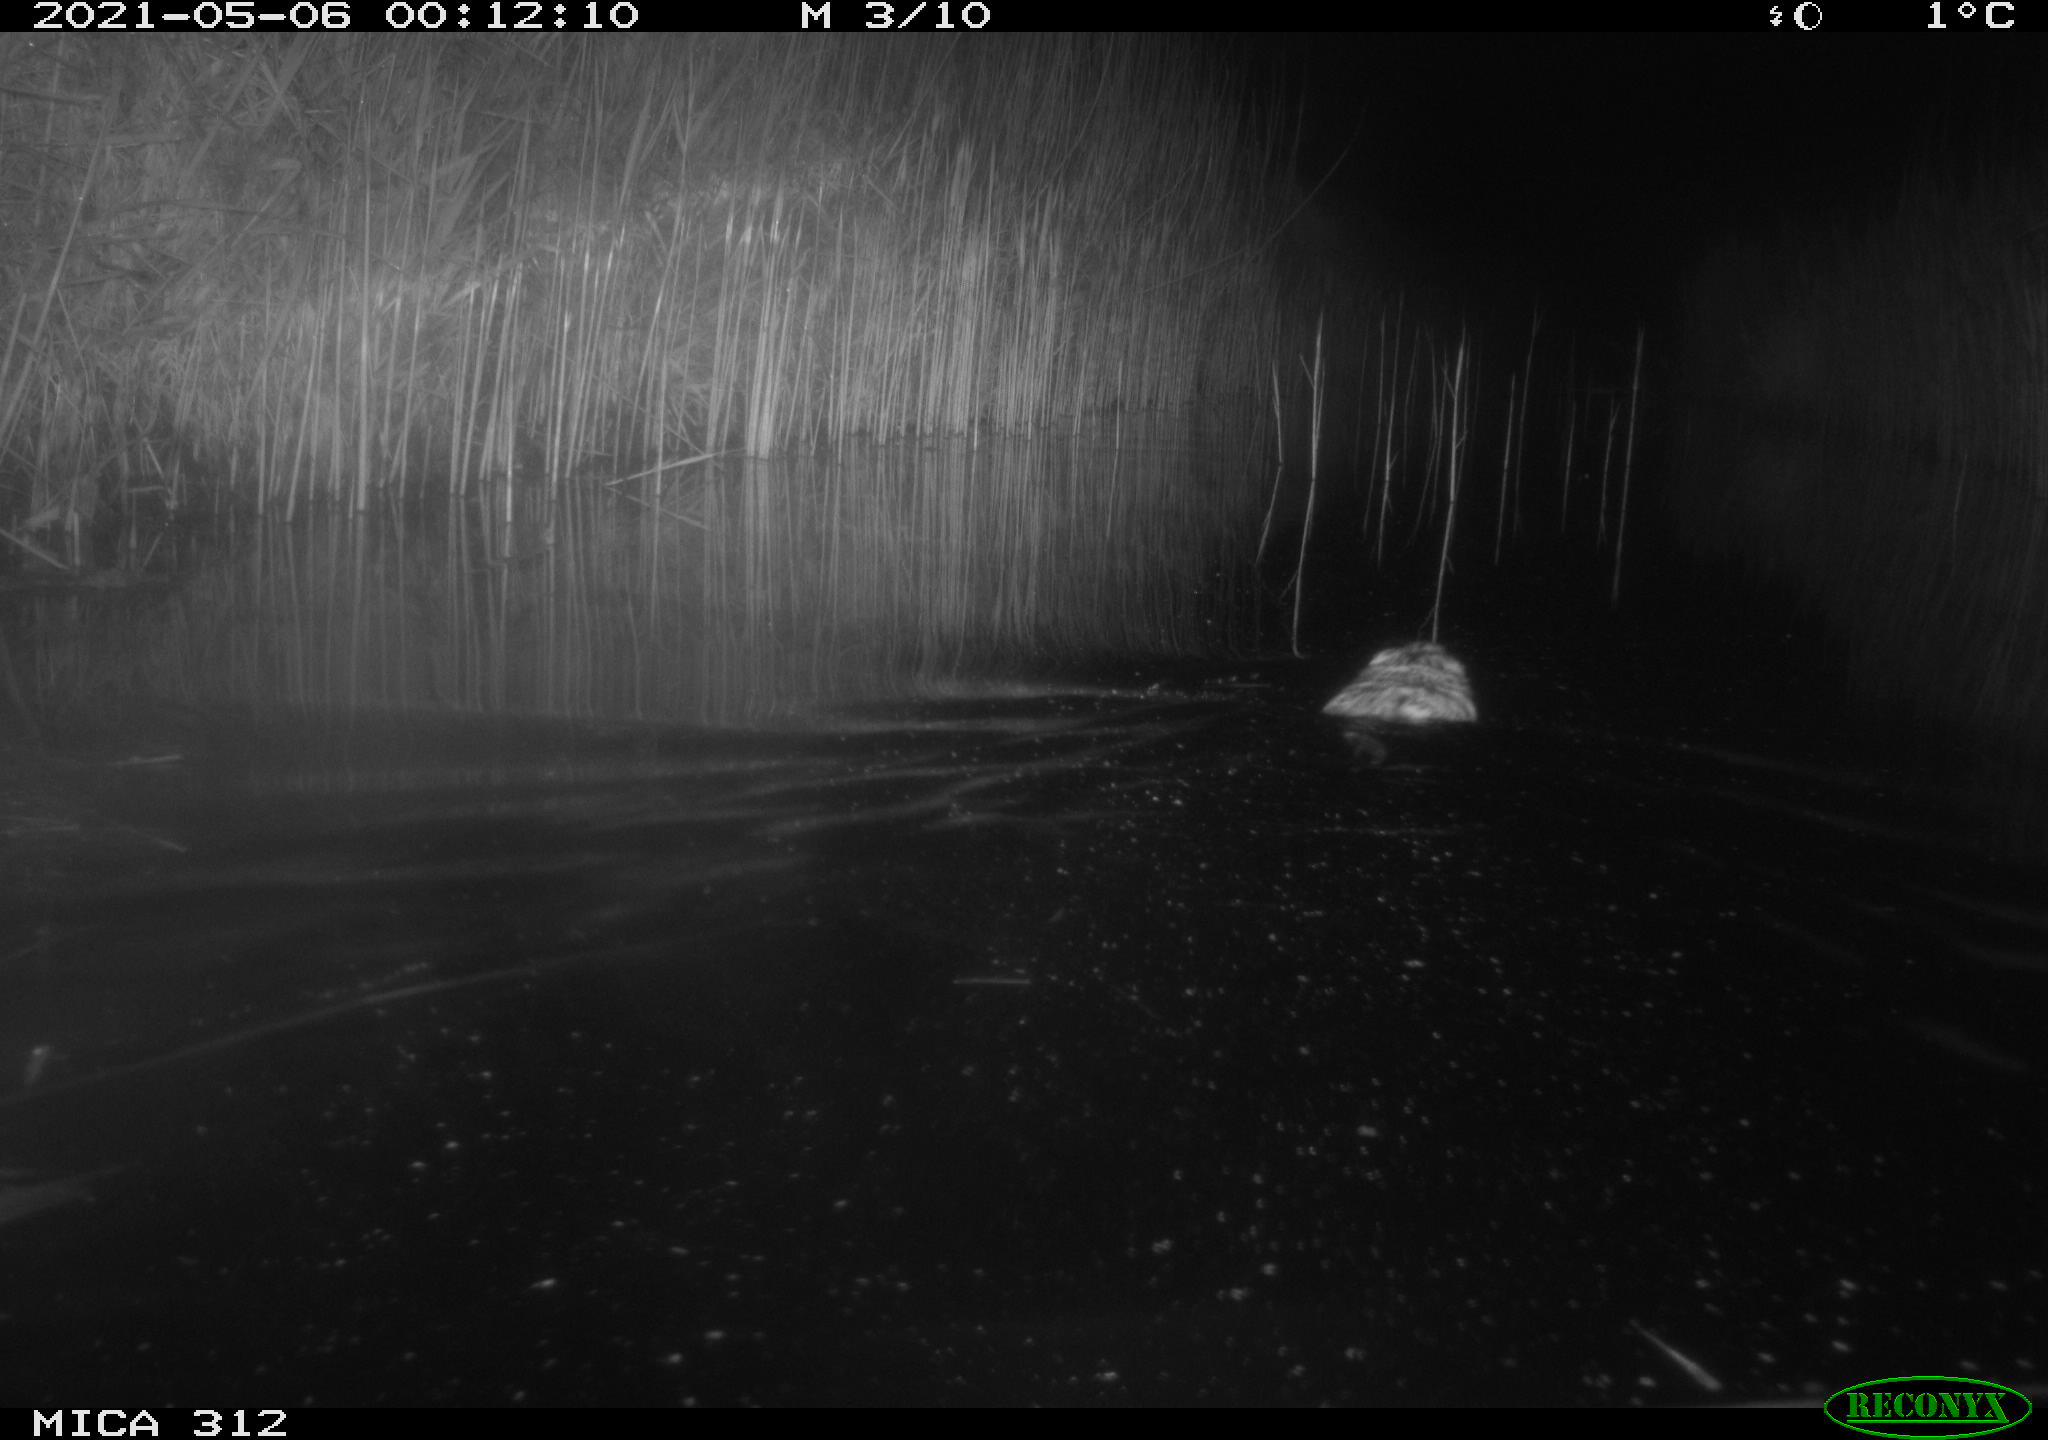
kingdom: Animalia
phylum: Chordata
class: Mammalia
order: Rodentia
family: Cricetidae
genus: Ondatra
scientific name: Ondatra zibethicus
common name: Muskrat
